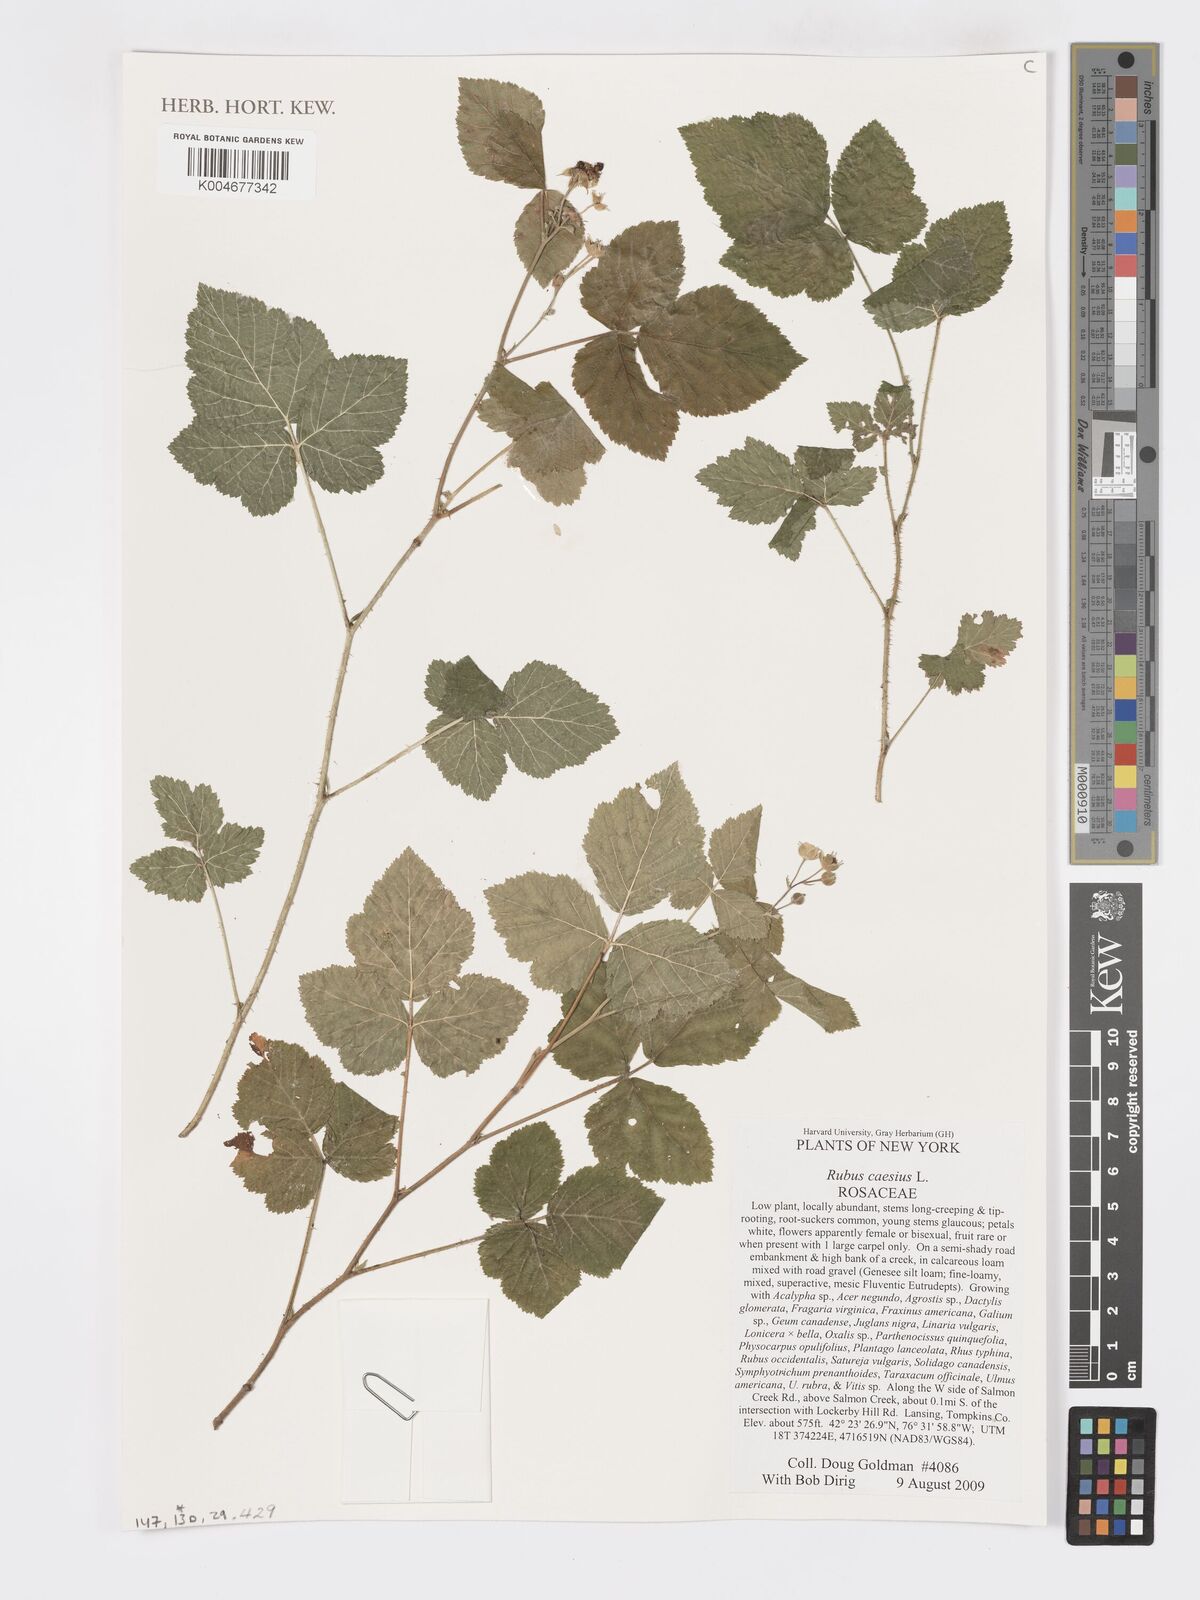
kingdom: Plantae
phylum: Tracheophyta
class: Magnoliopsida
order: Rosales
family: Rosaceae
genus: Rubus
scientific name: Rubus caesius
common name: Dewberry
